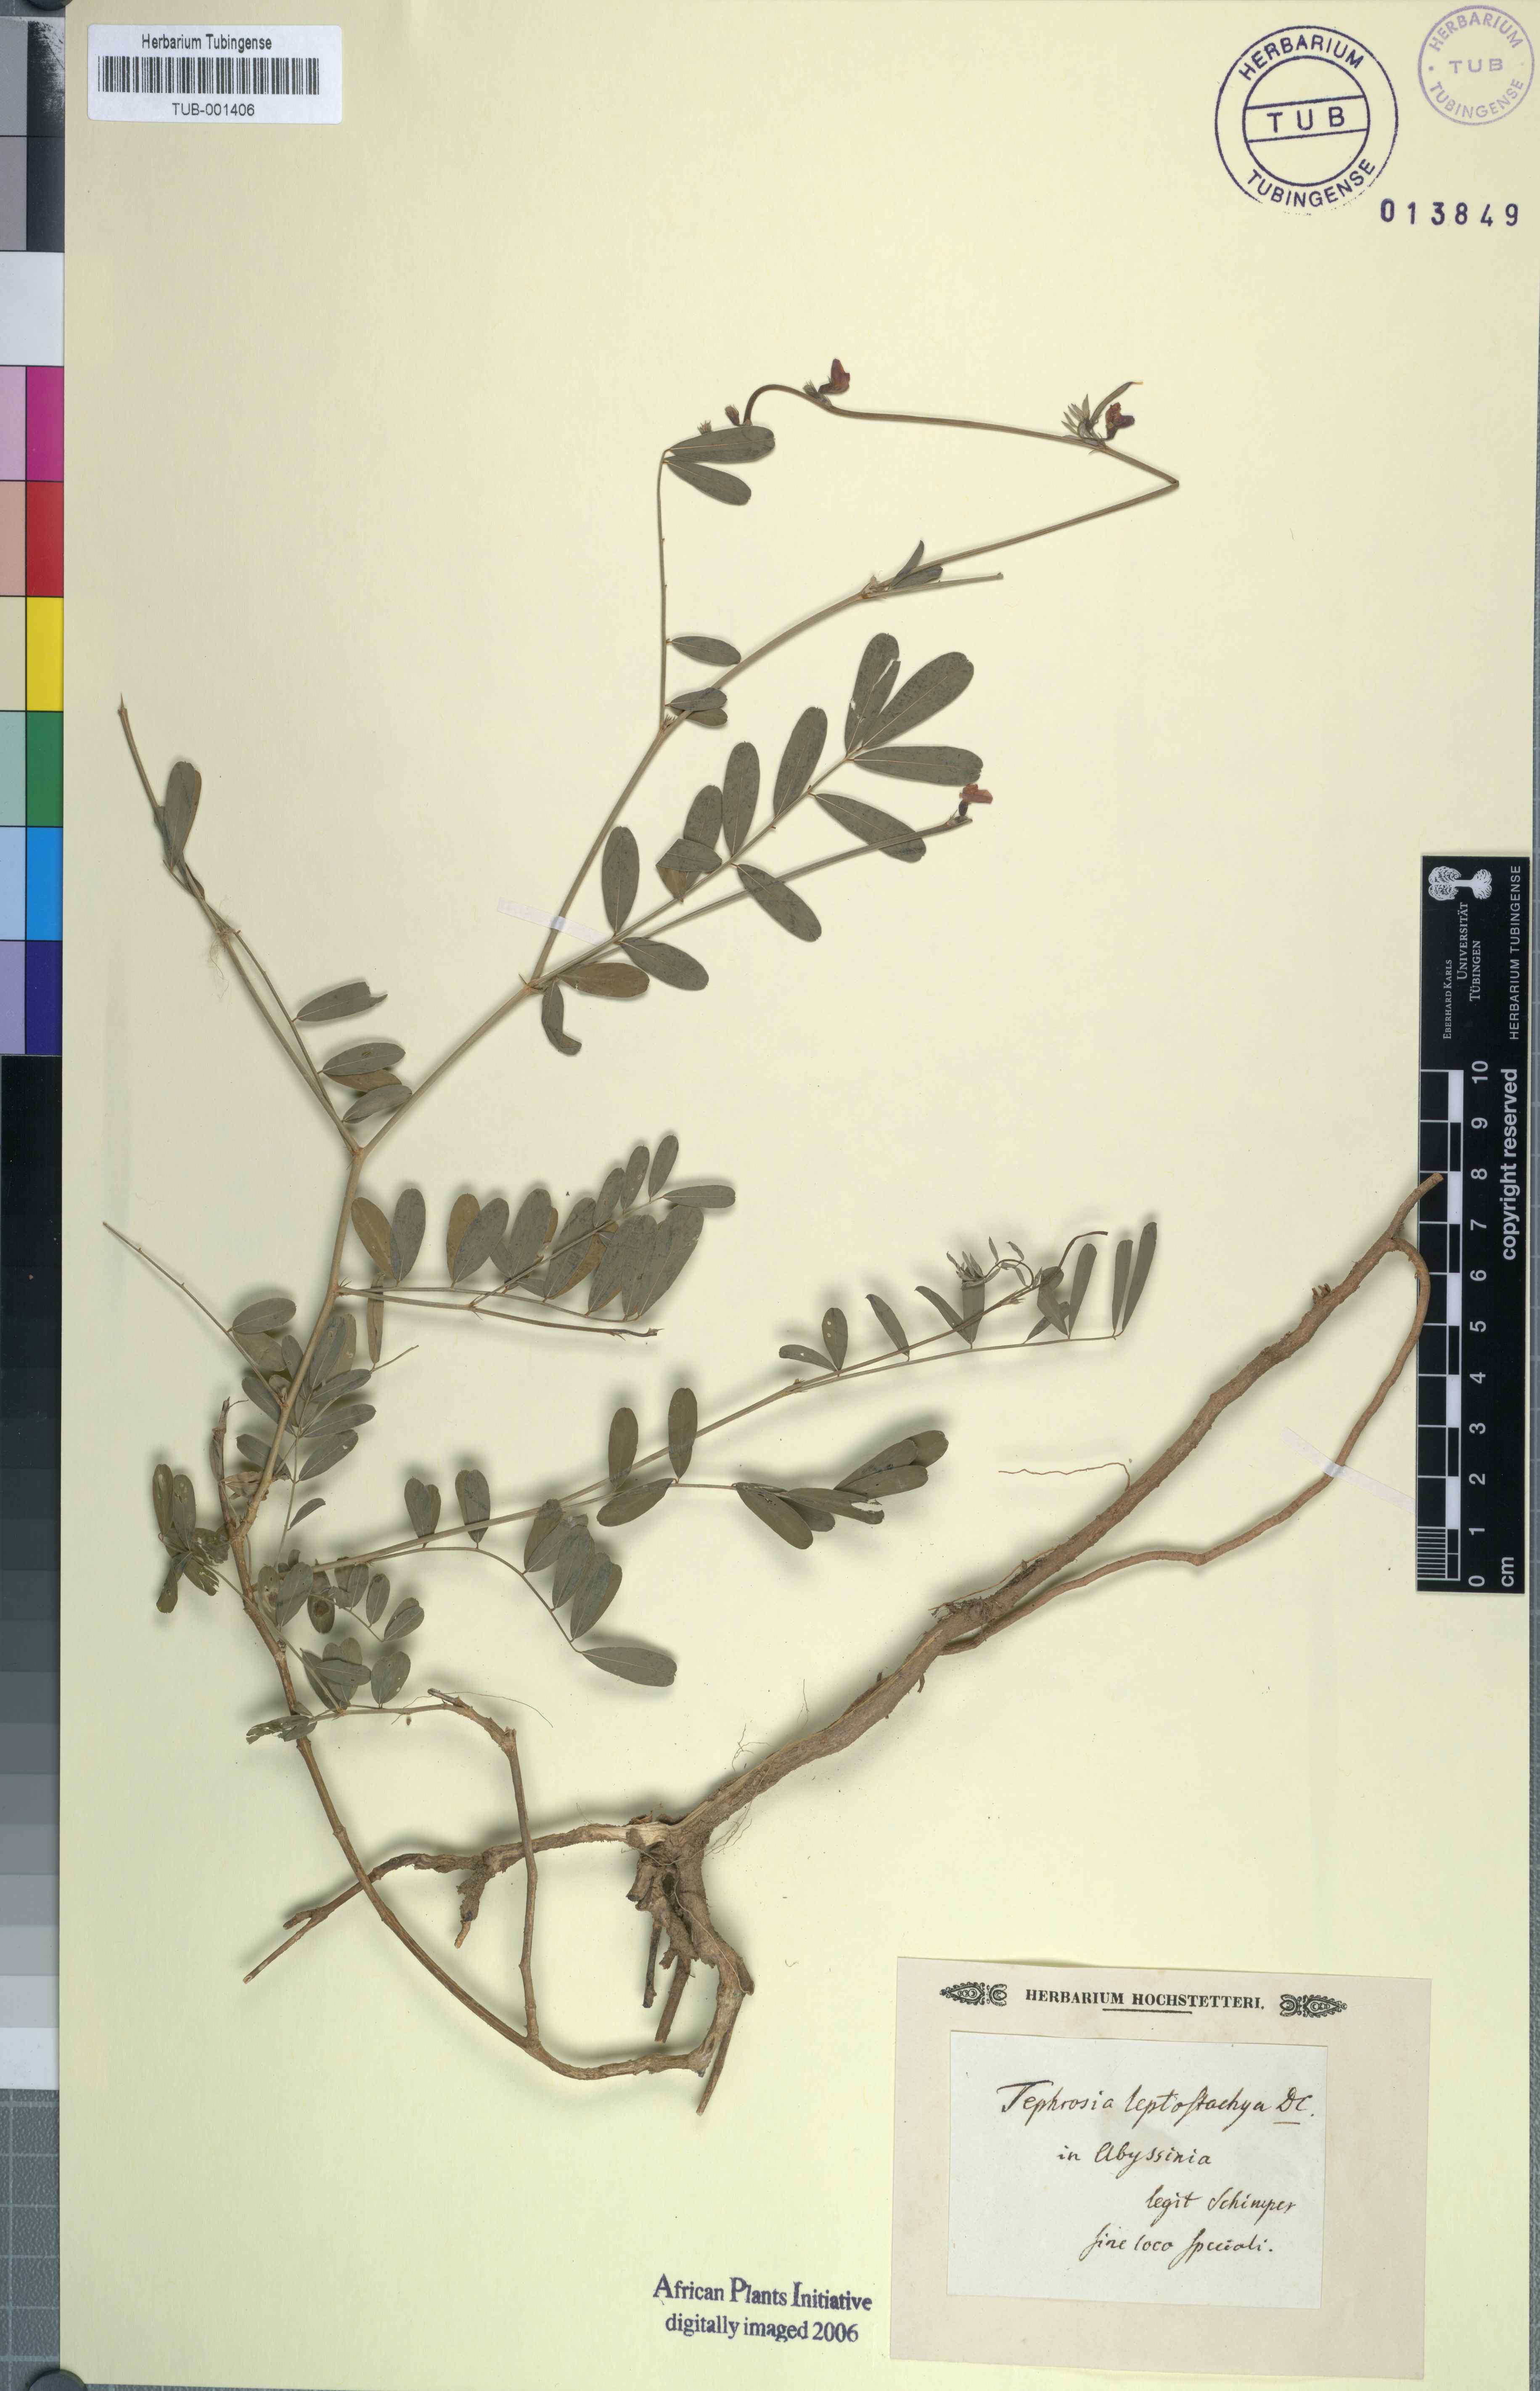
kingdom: Plantae
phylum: Tracheophyta
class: Magnoliopsida
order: Fabales
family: Fabaceae
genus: Tephrosia
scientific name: Tephrosia purpurea
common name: Fishpoison
